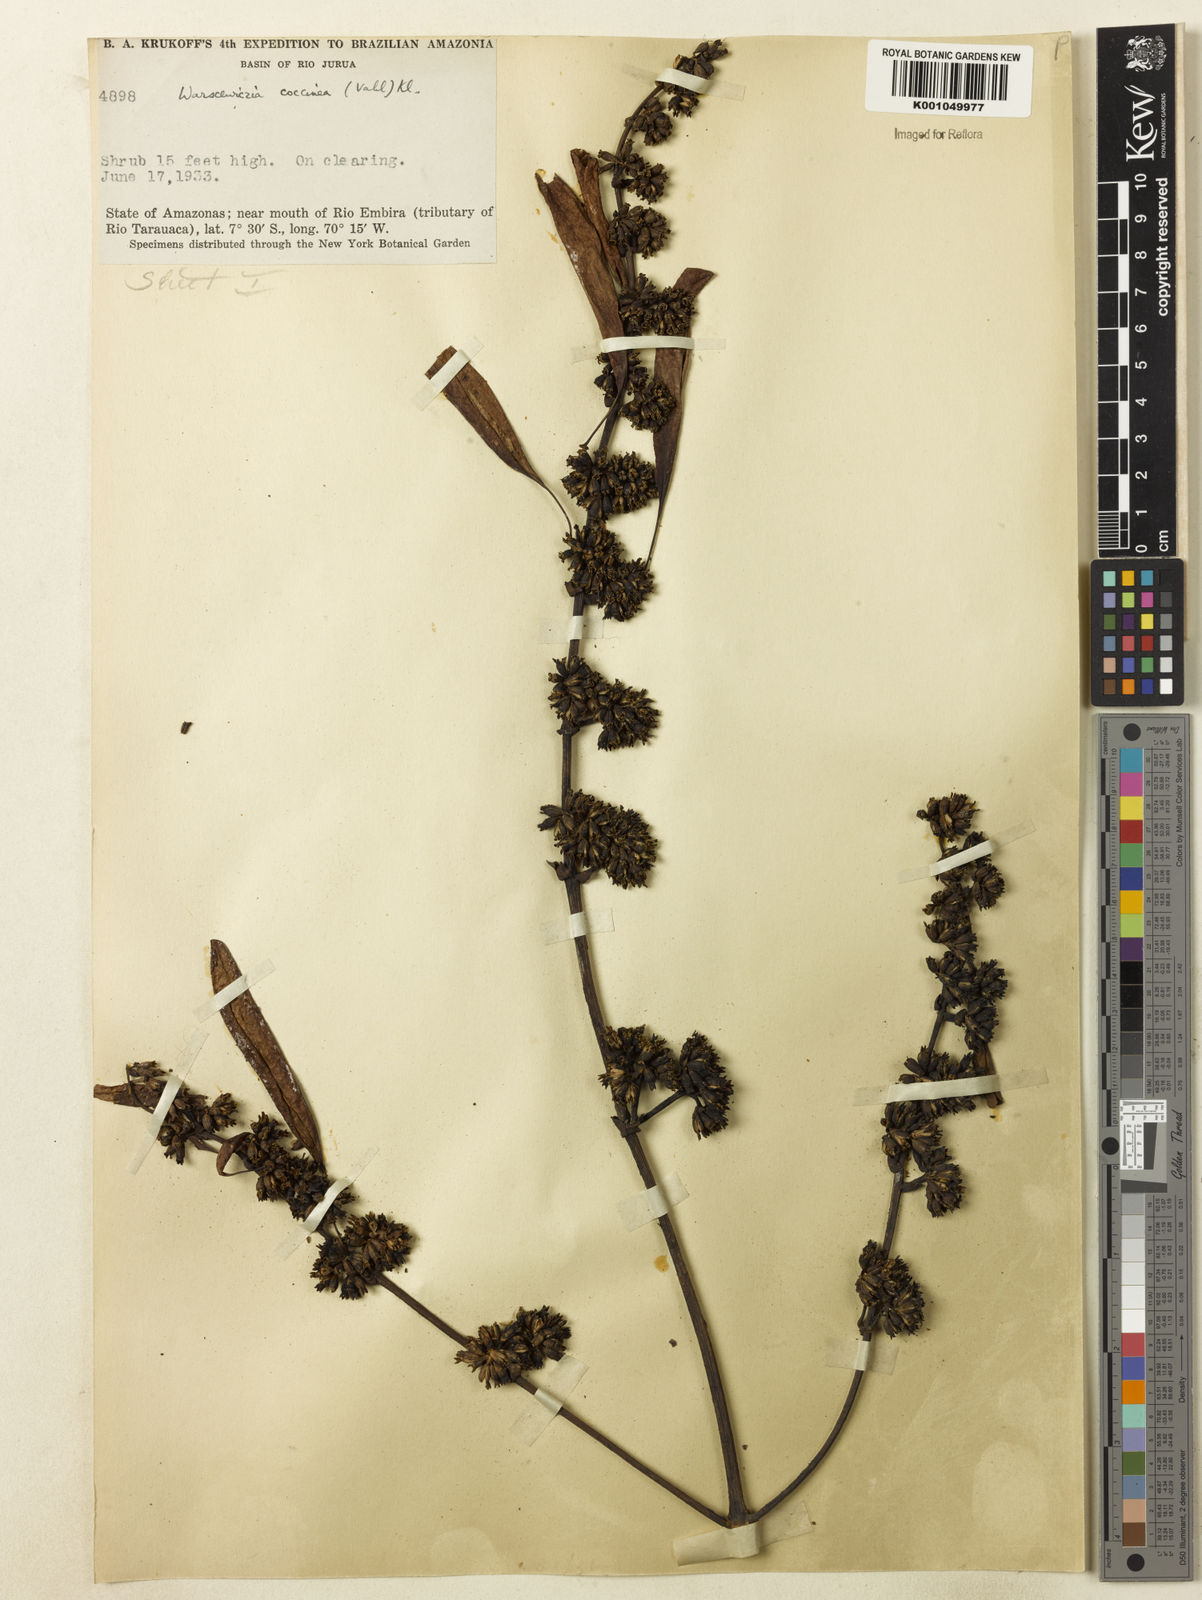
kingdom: Plantae
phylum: Tracheophyta
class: Magnoliopsida
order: Gentianales
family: Rubiaceae
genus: Warszewiczia
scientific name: Warszewiczia coccinea
